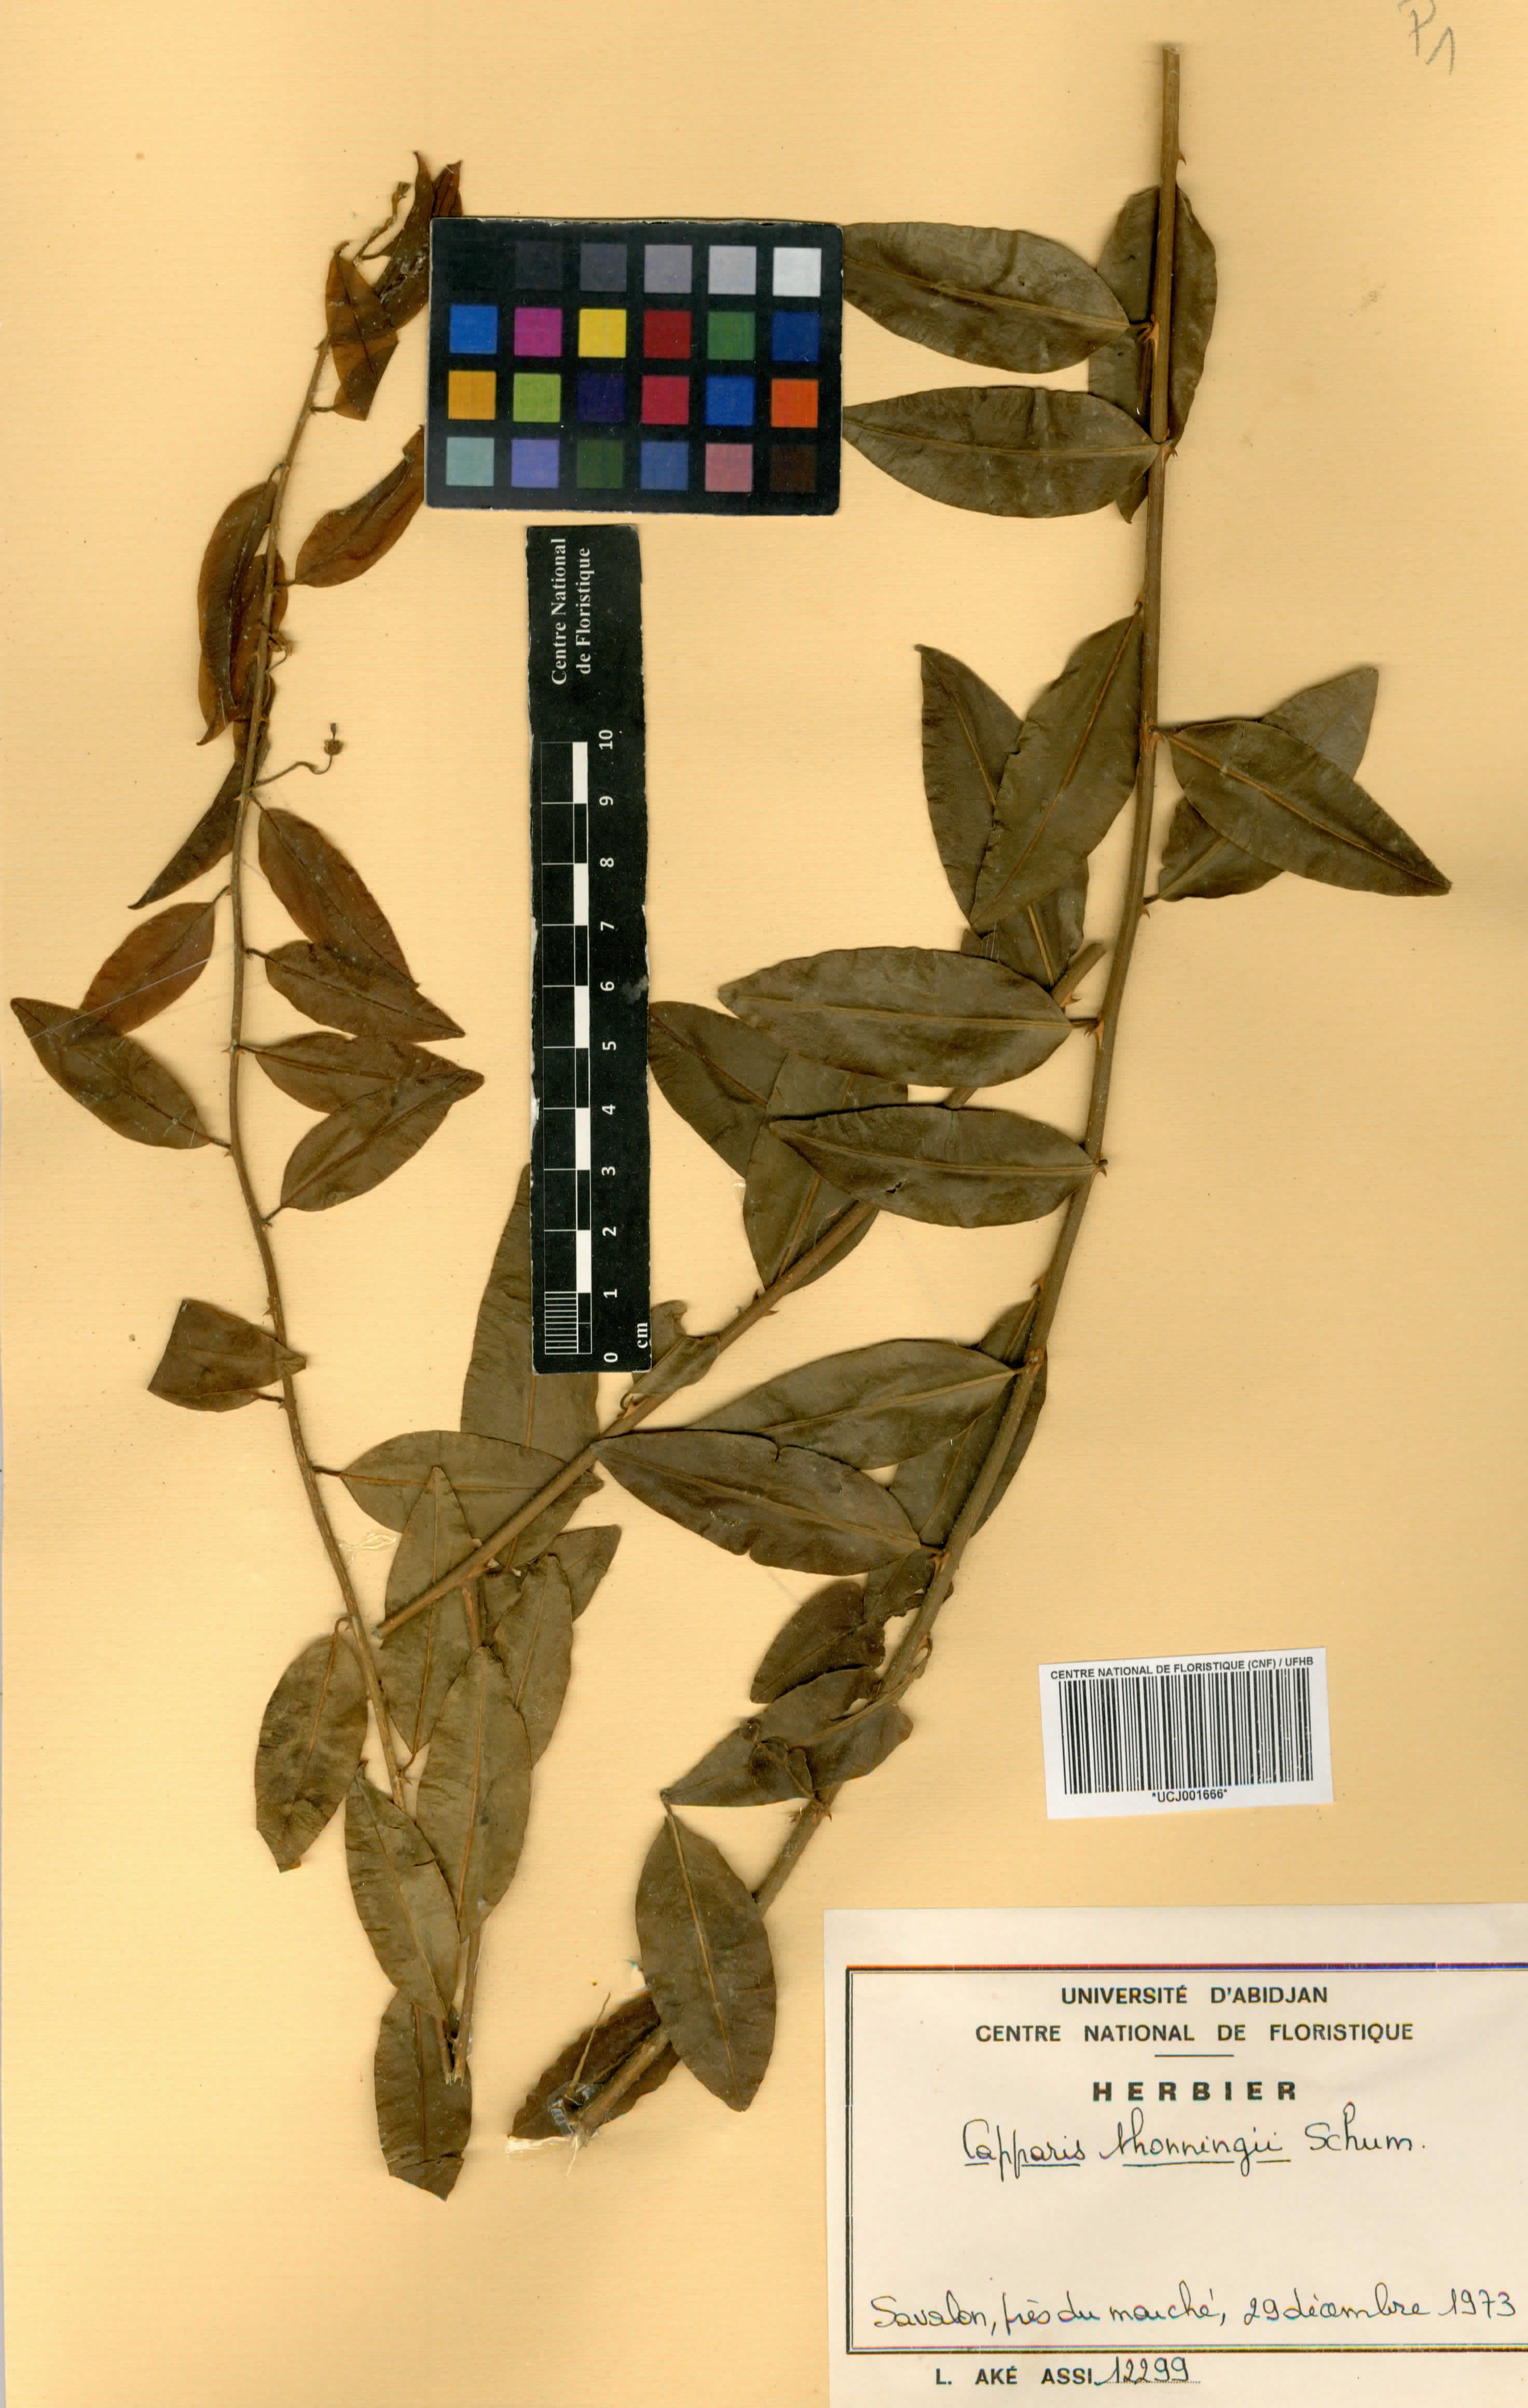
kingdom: Plantae
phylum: Tracheophyta
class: Magnoliopsida
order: Brassicales
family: Capparaceae
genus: Capparis
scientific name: Capparis brassii
